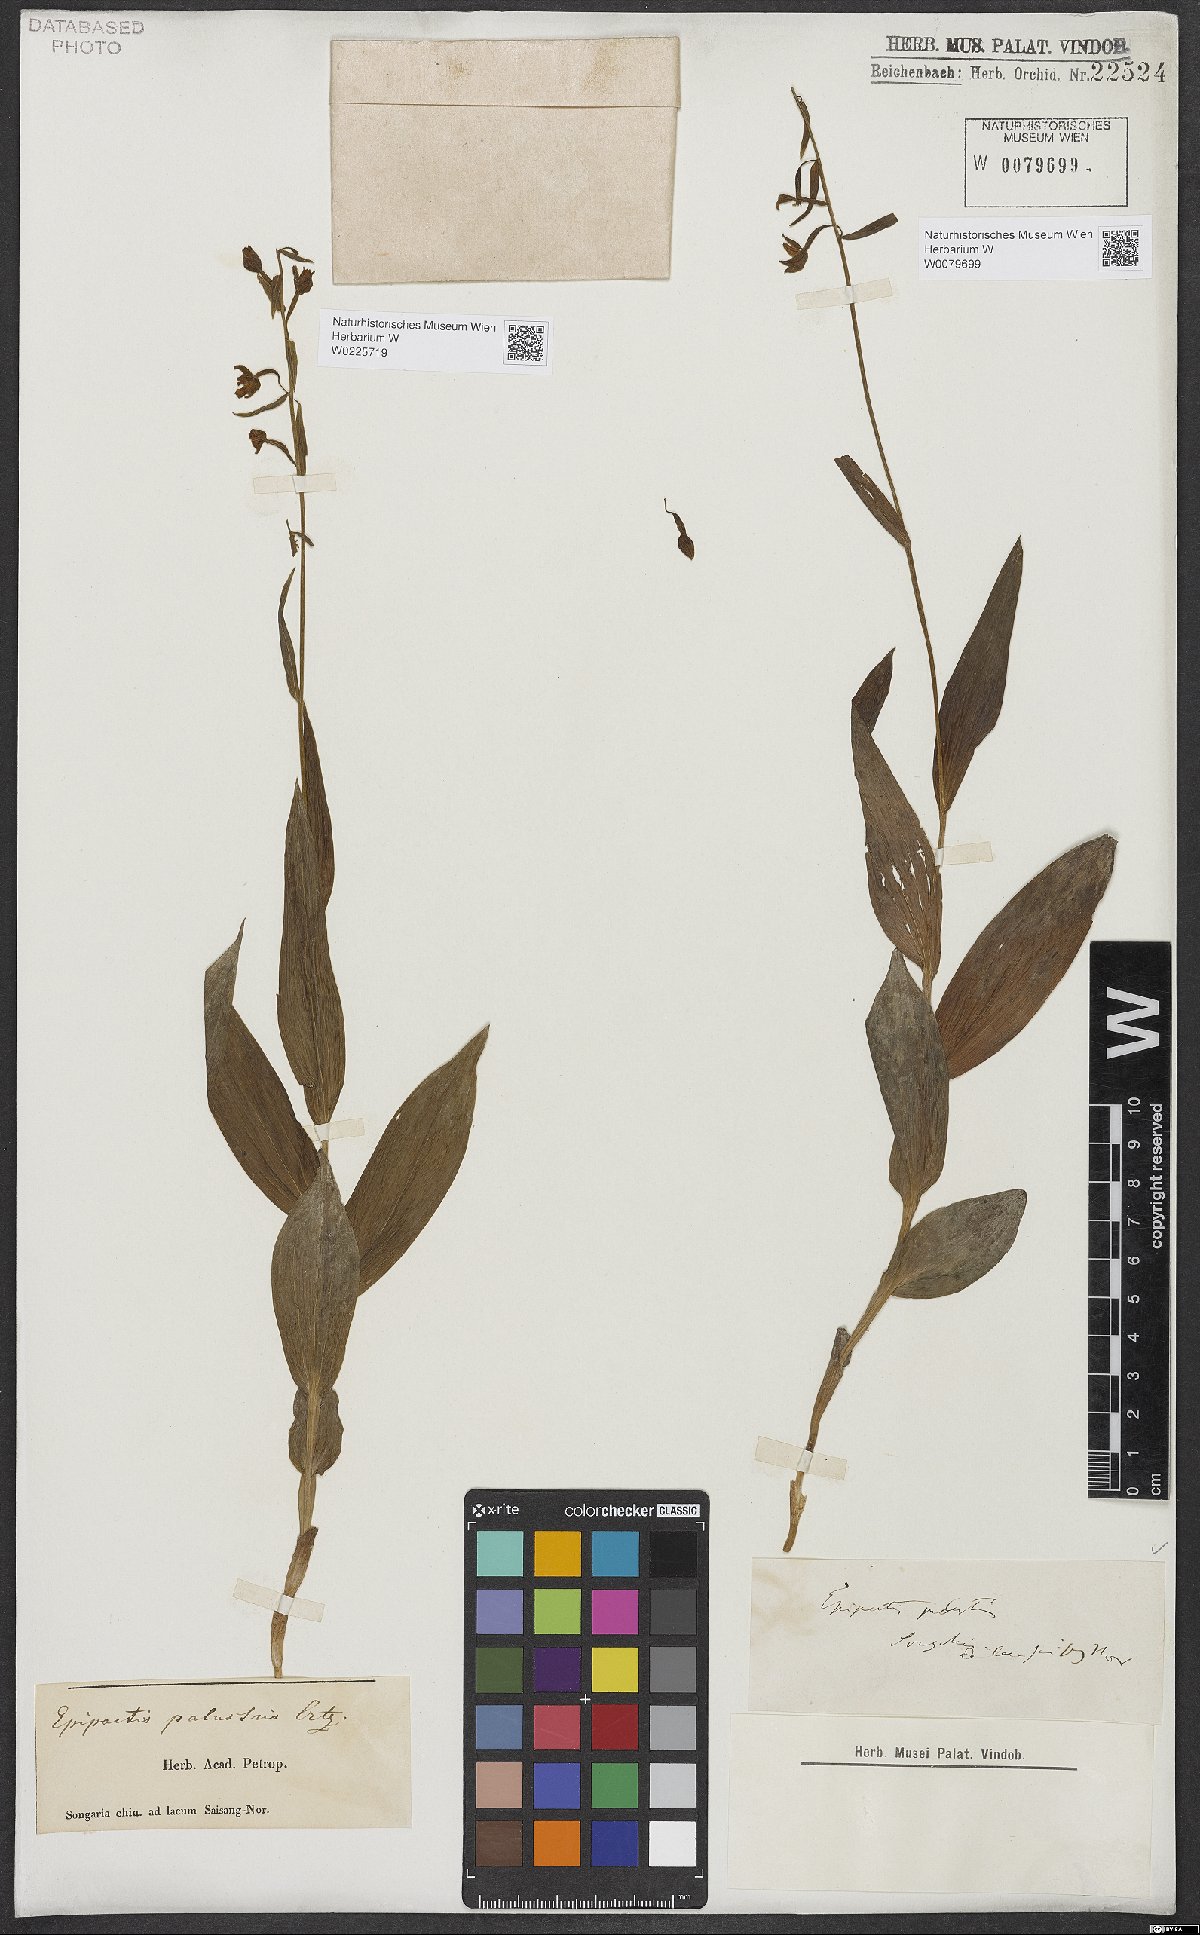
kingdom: Plantae
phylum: Tracheophyta
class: Liliopsida
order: Asparagales
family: Orchidaceae
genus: Epipactis
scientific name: Epipactis palustris
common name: Marsh helleborine
